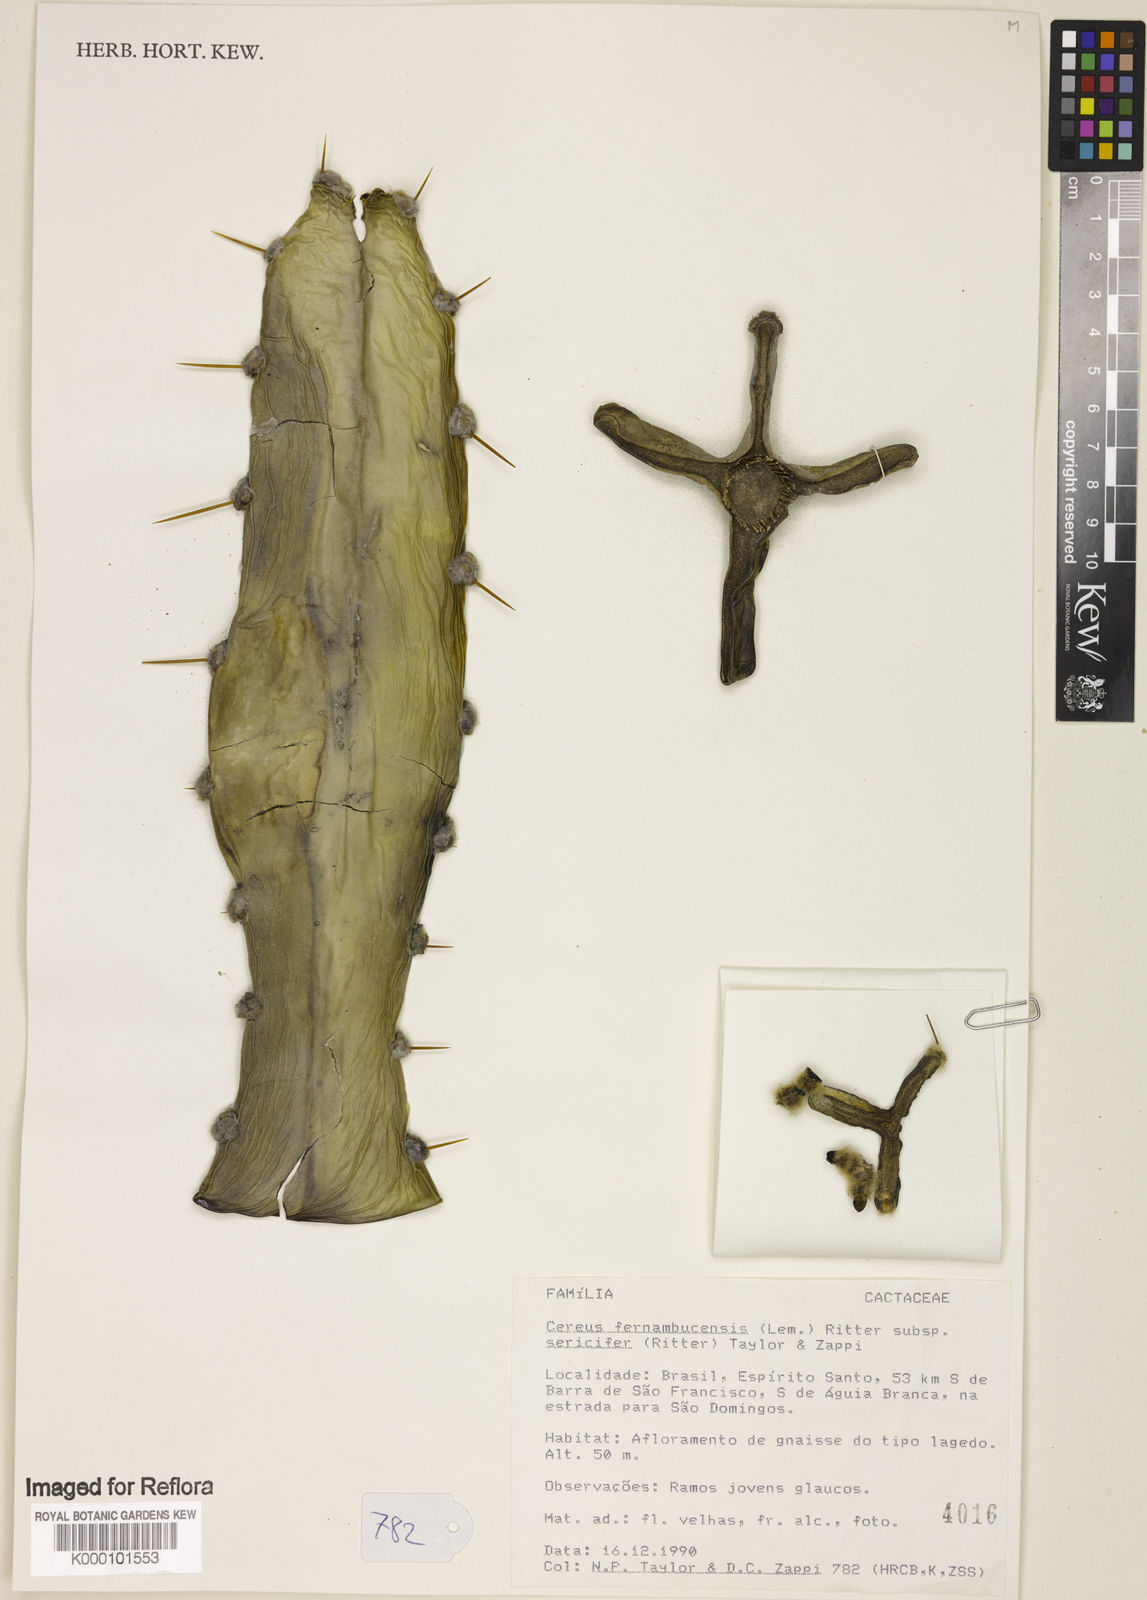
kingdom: Plantae
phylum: Tracheophyta
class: Magnoliopsida
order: Caryophyllales
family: Cactaceae
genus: Cereus
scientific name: Cereus fernambucensis
